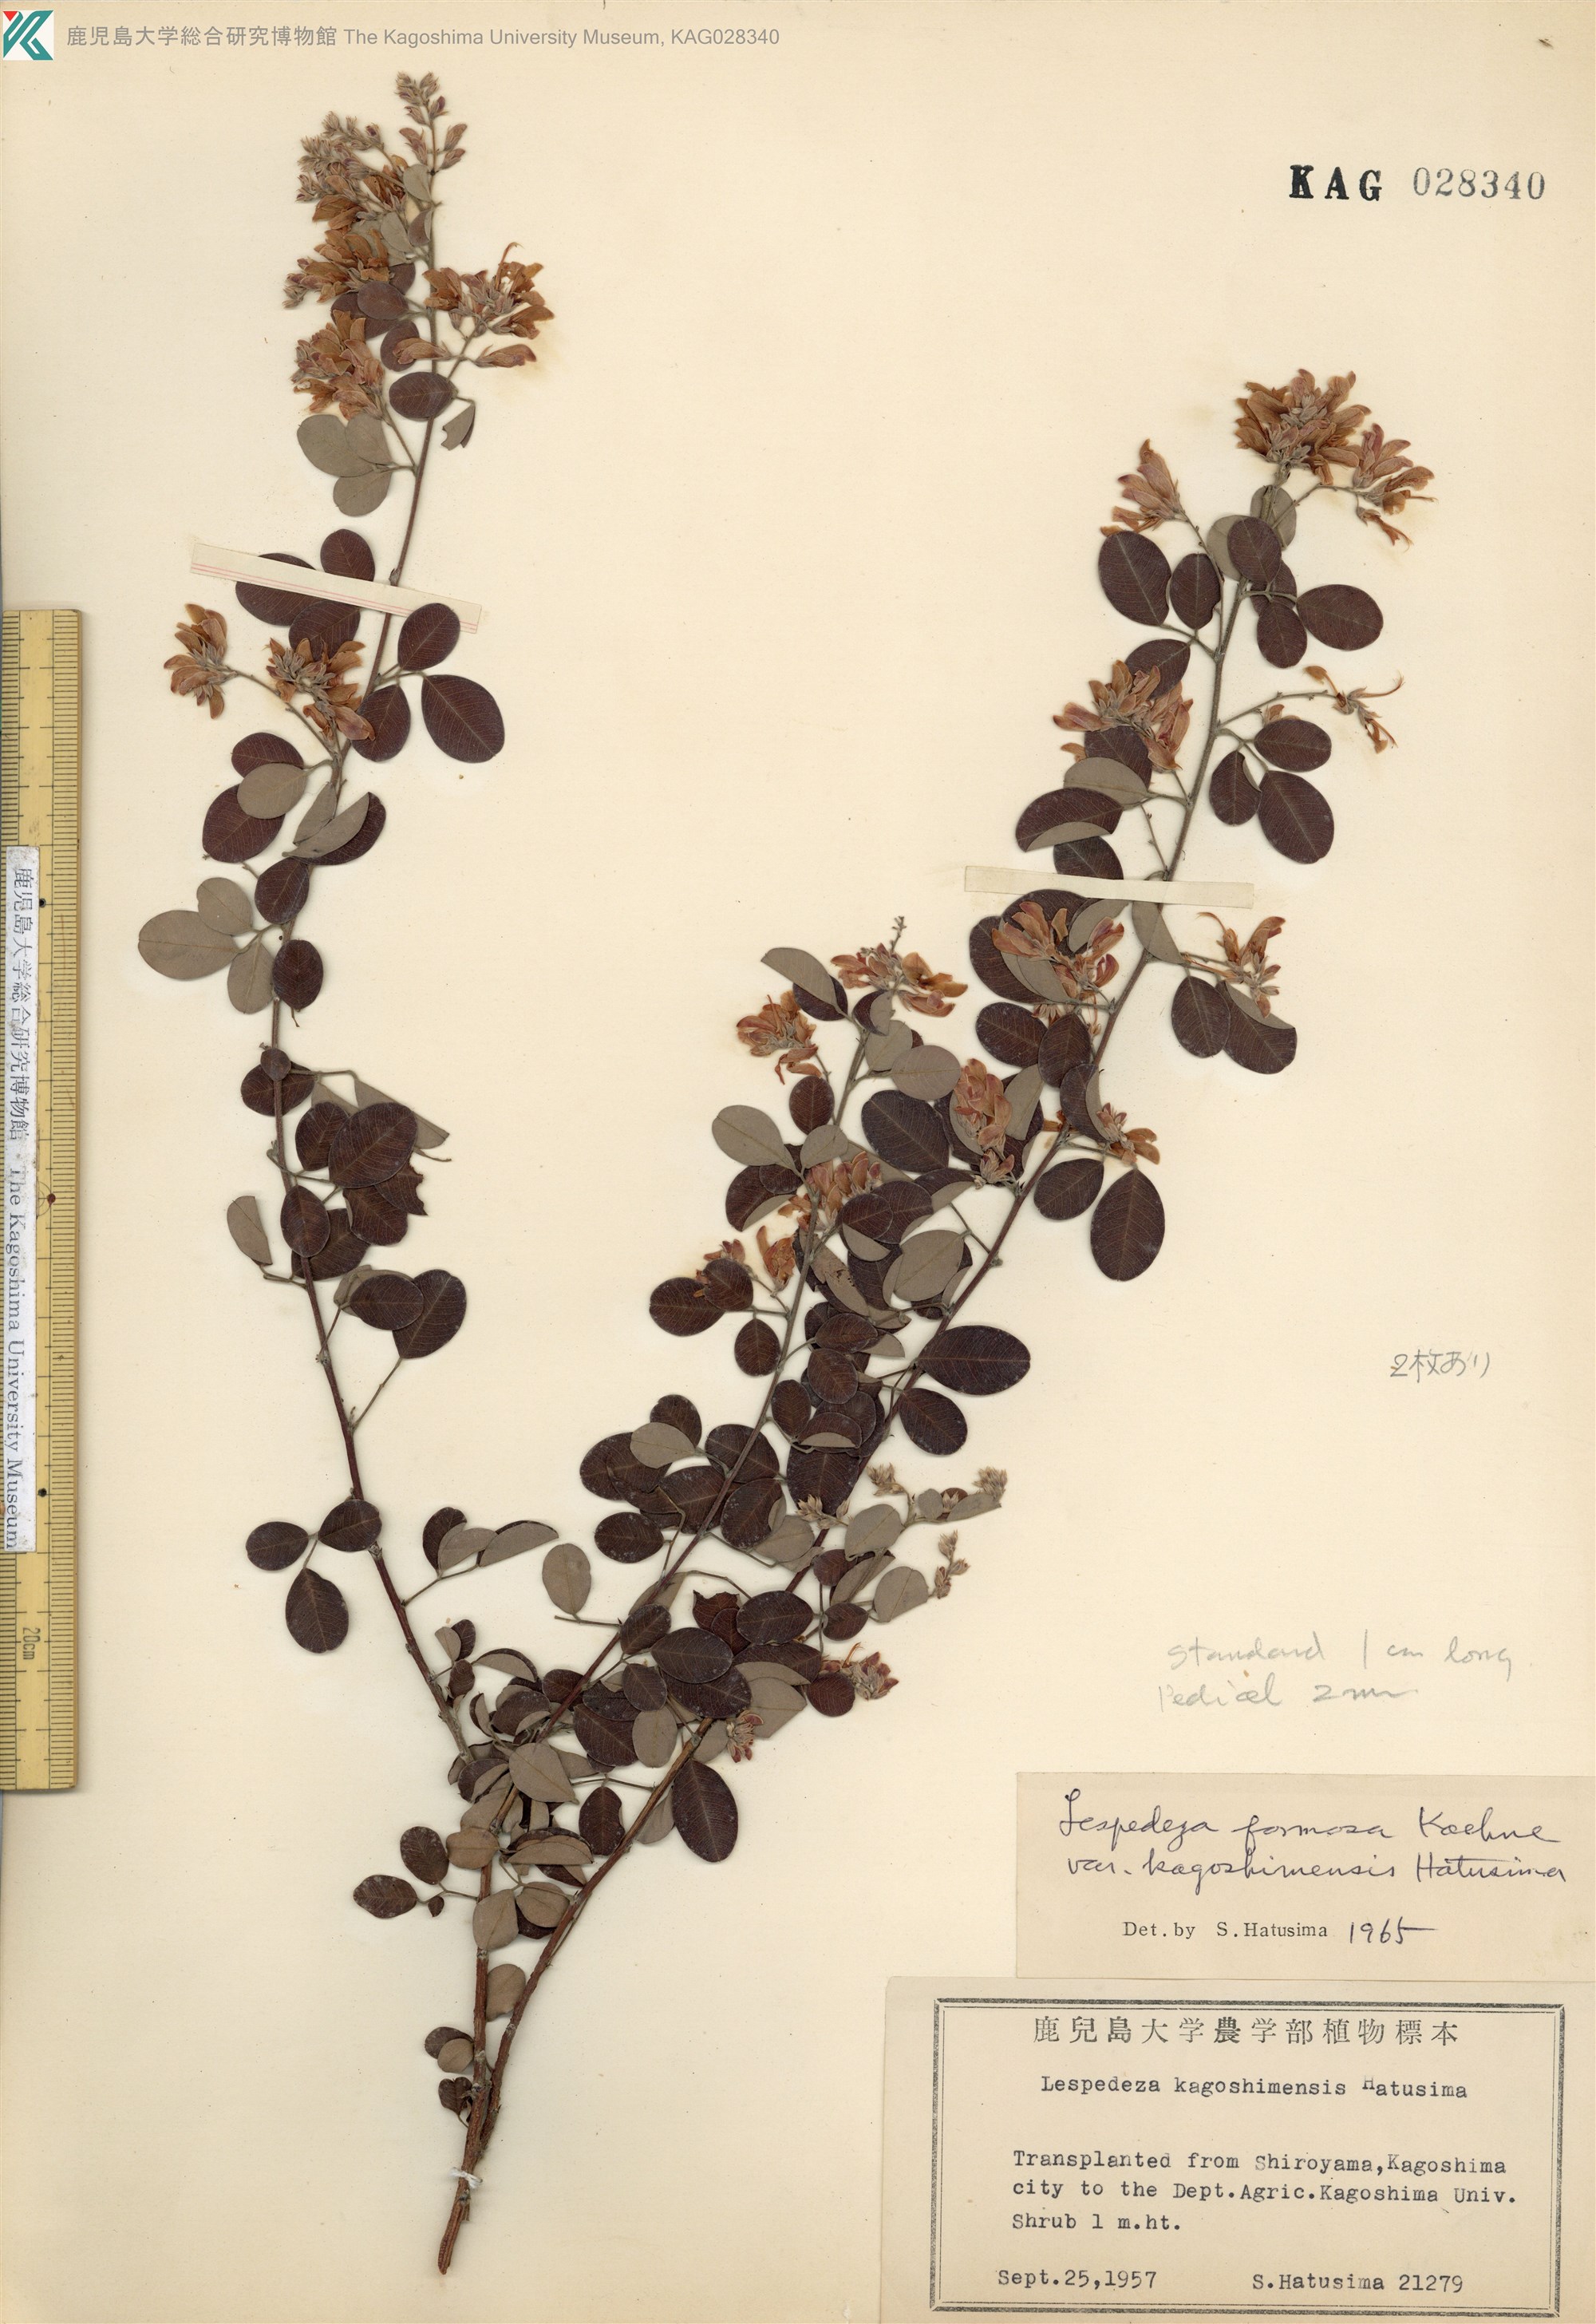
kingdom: Plantae
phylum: Tracheophyta
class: Magnoliopsida
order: Fabales
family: Fabaceae
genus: Lespedeza
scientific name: Lespedeza kagoshimensis
